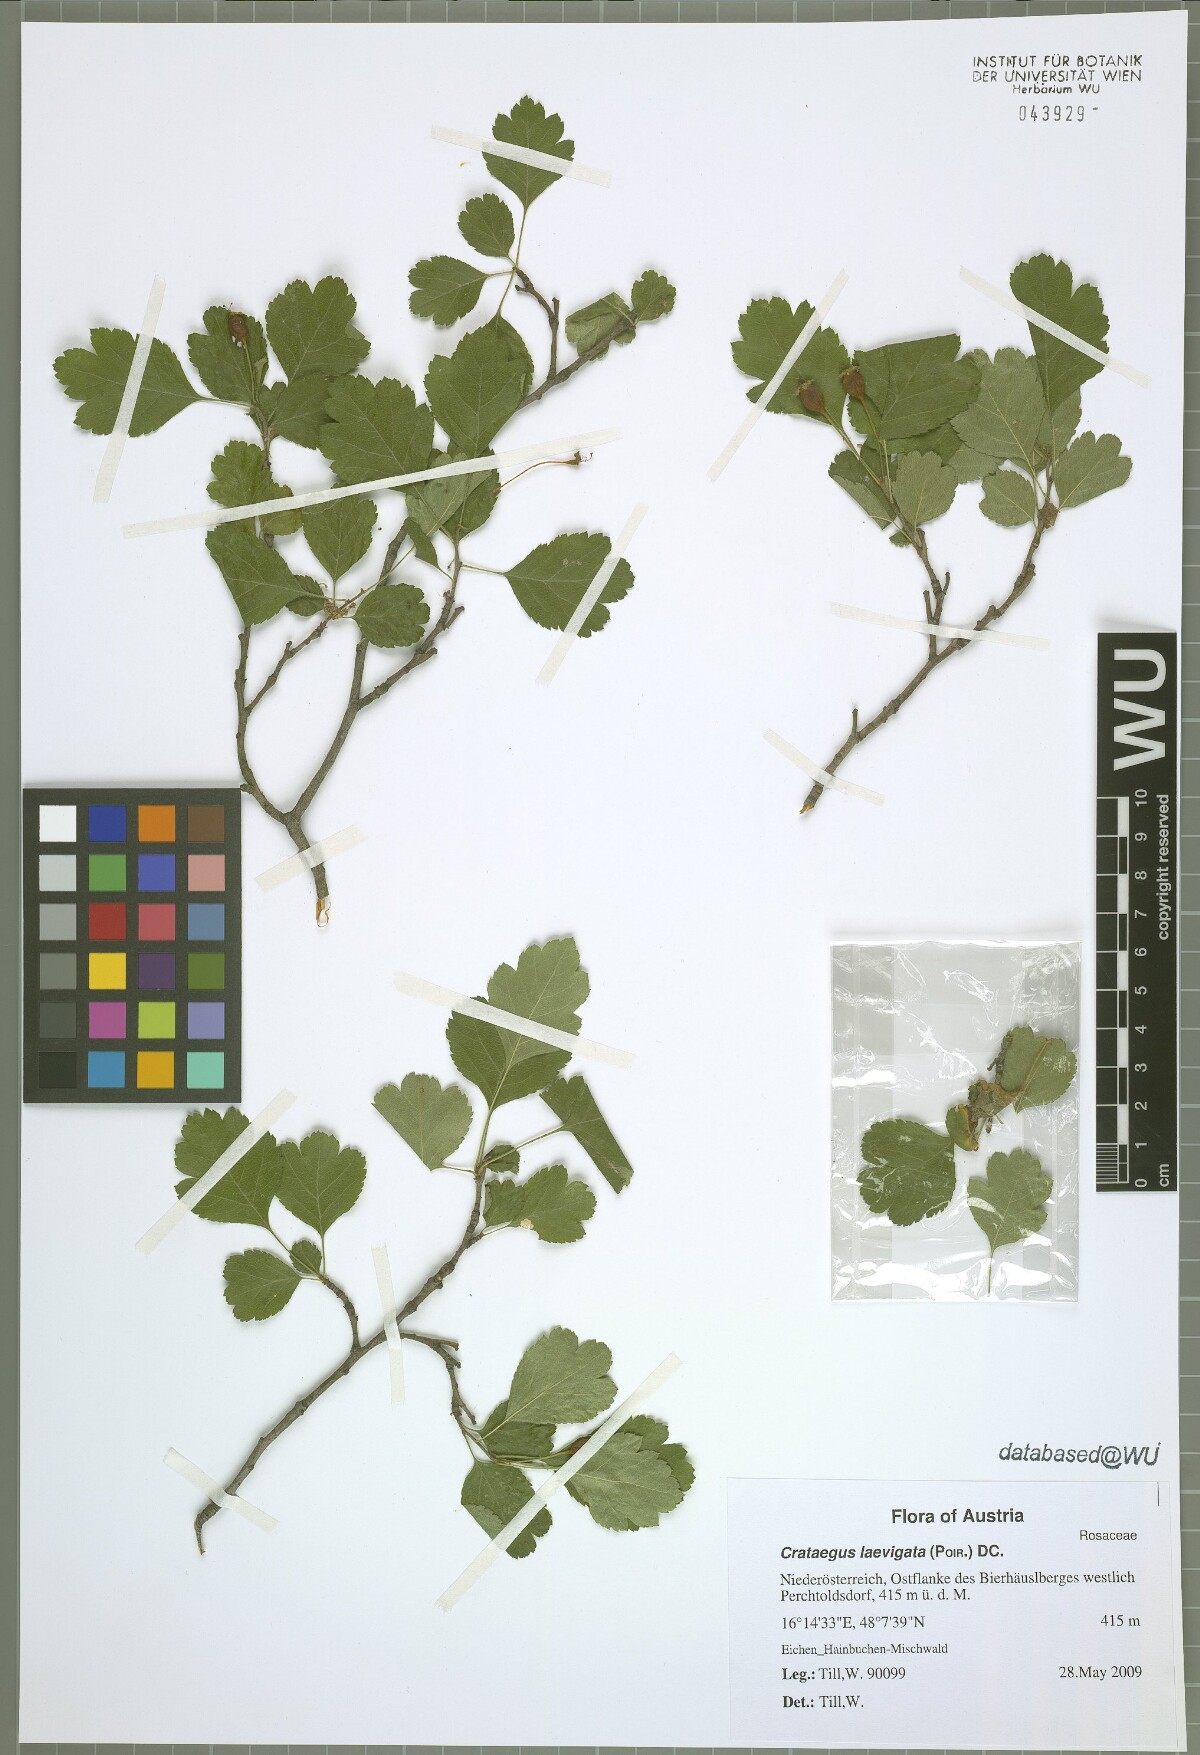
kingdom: Plantae
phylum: Tracheophyta
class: Magnoliopsida
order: Rosales
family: Rosaceae
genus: Crataegus
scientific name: Crataegus laevigata
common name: Midland hawthorn
